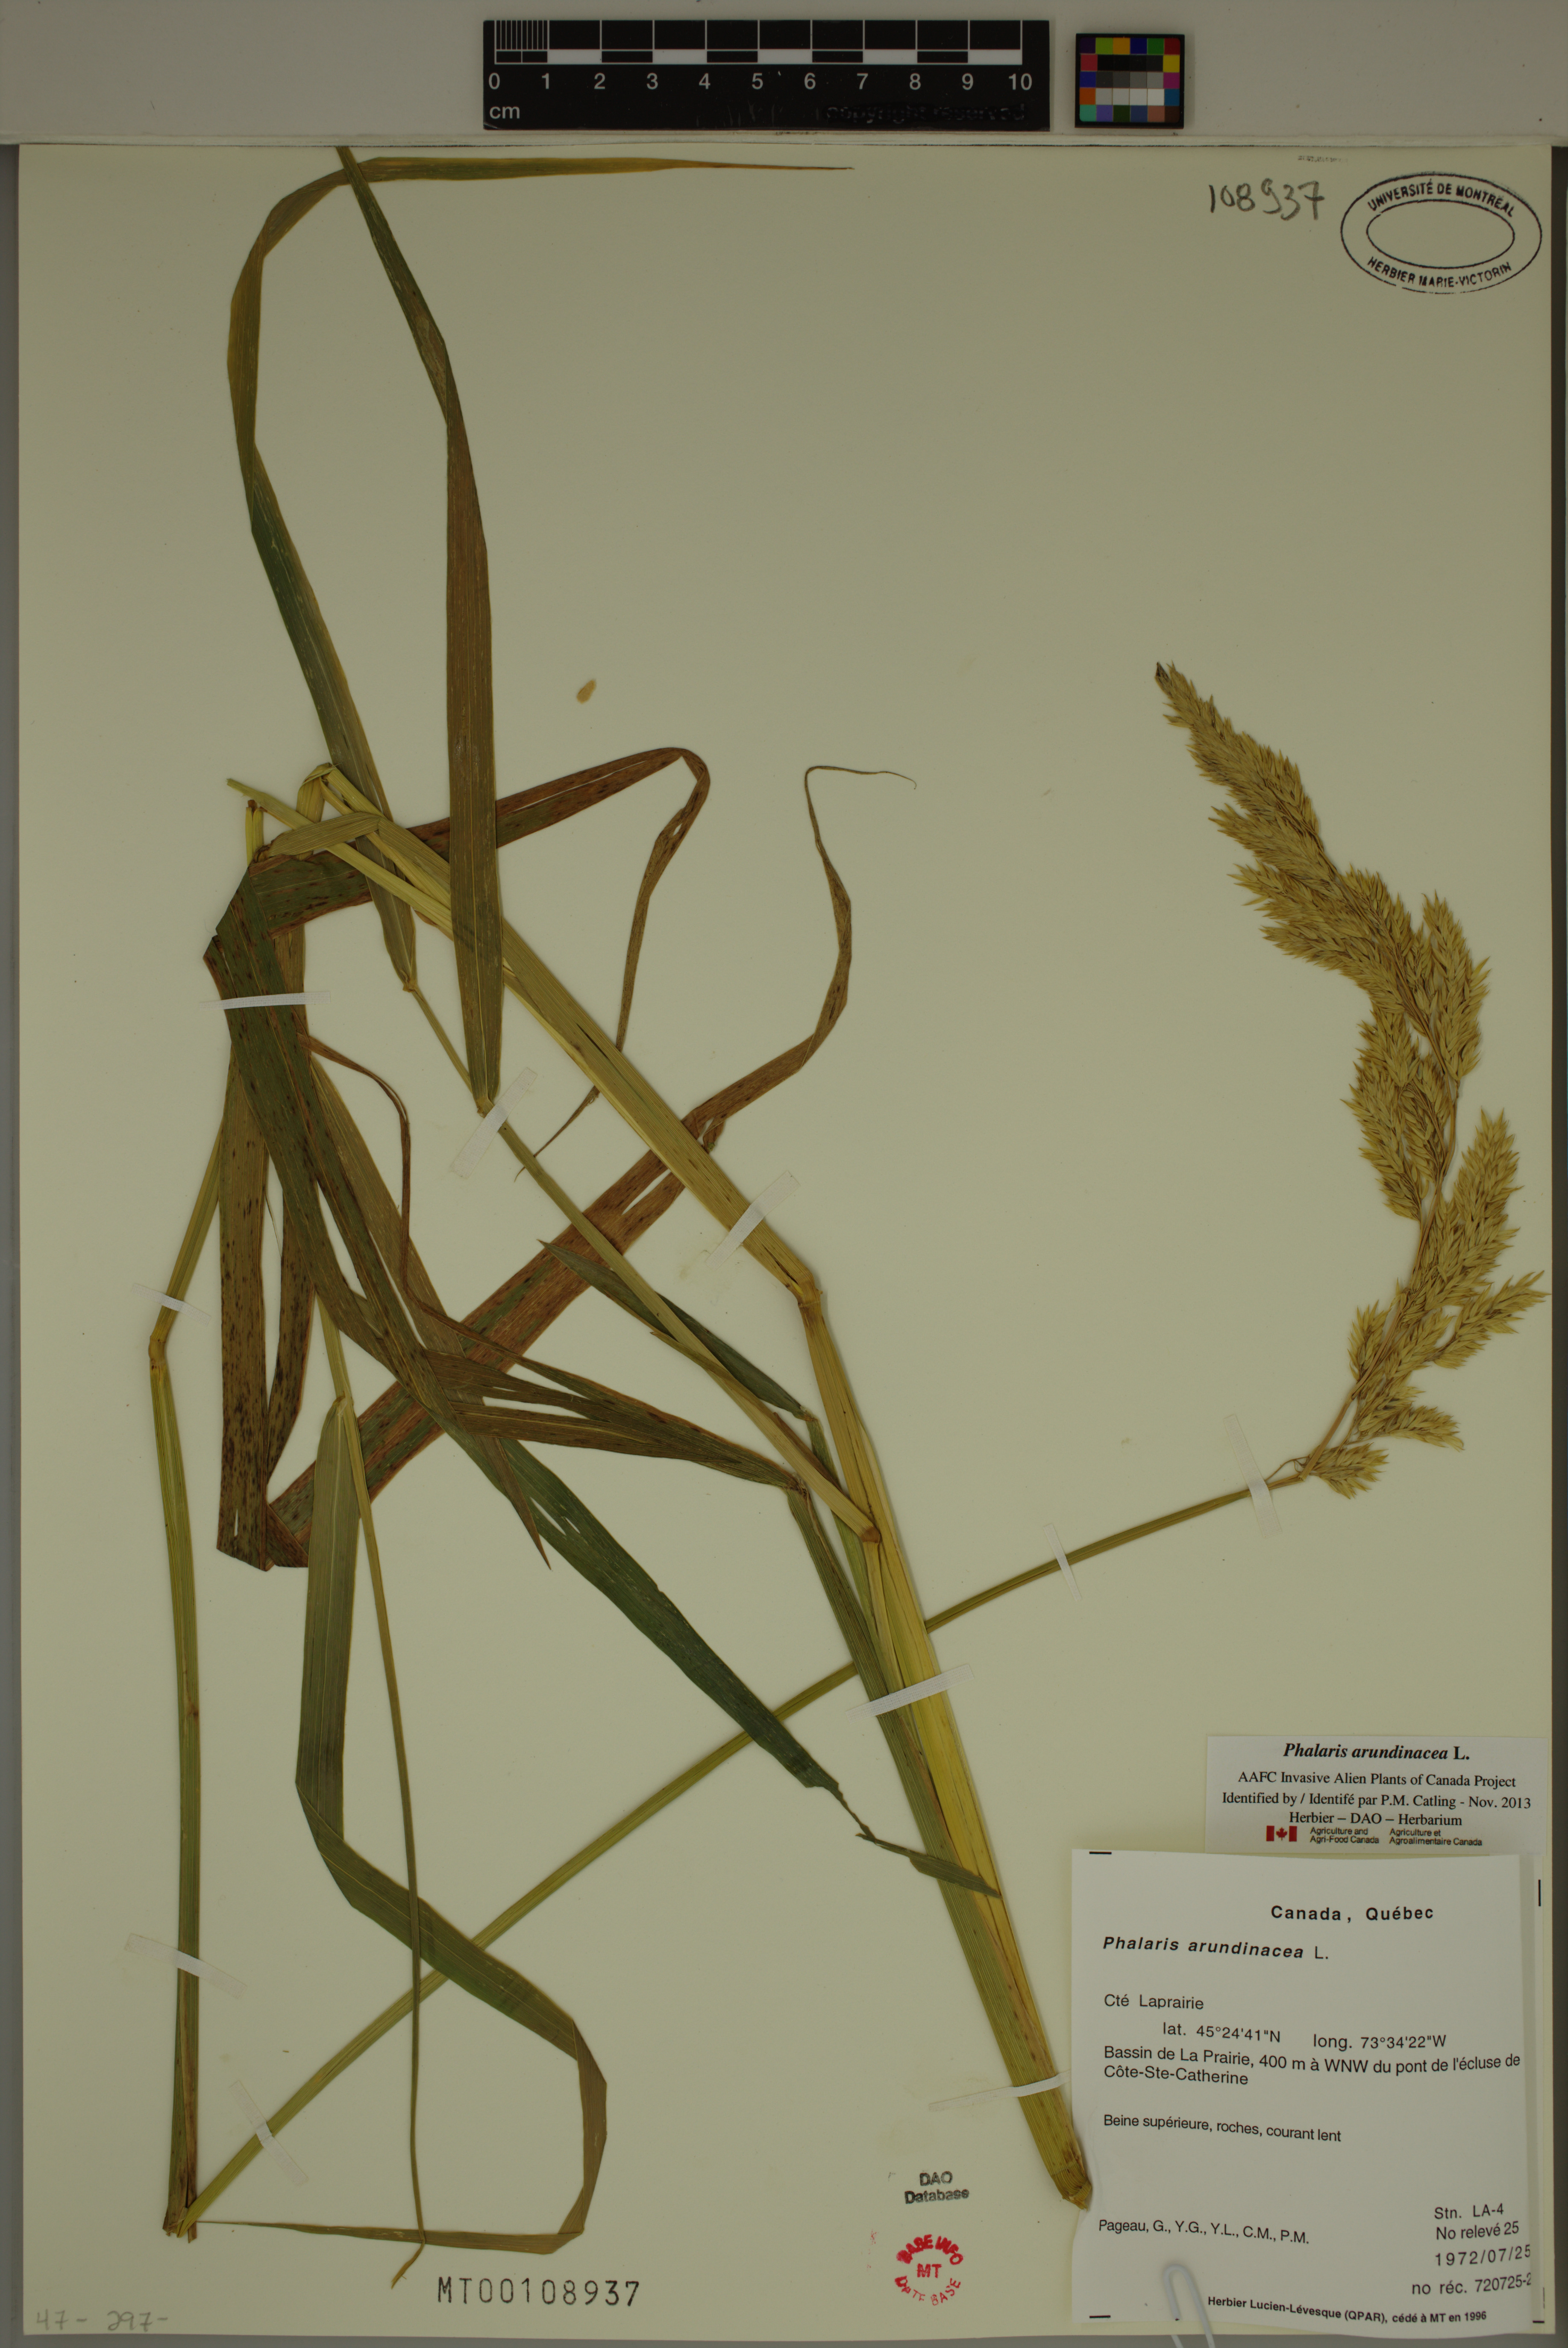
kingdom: Plantae
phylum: Tracheophyta
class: Liliopsida
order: Poales
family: Poaceae
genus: Phalaris
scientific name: Phalaris arundinacea
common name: Reed canary-grass
